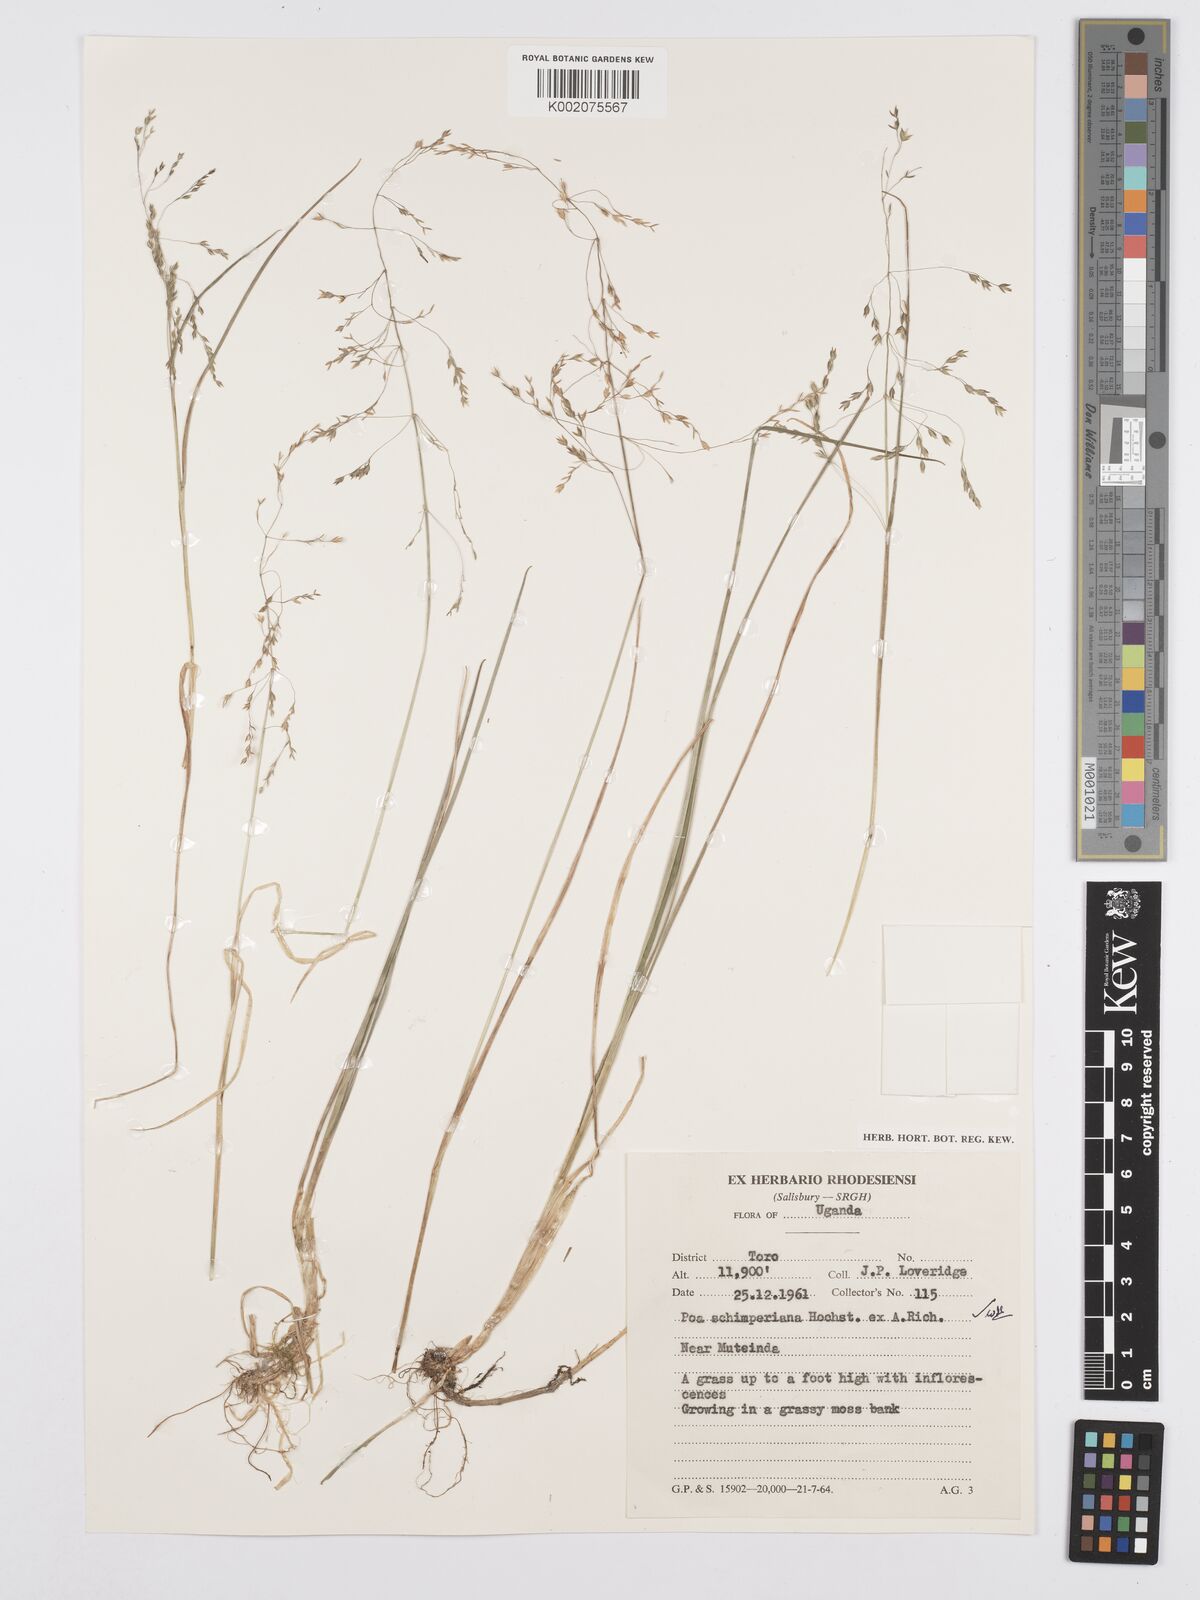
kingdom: Plantae
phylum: Tracheophyta
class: Liliopsida
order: Poales
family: Poaceae
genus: Poa
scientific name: Poa schimperiana
